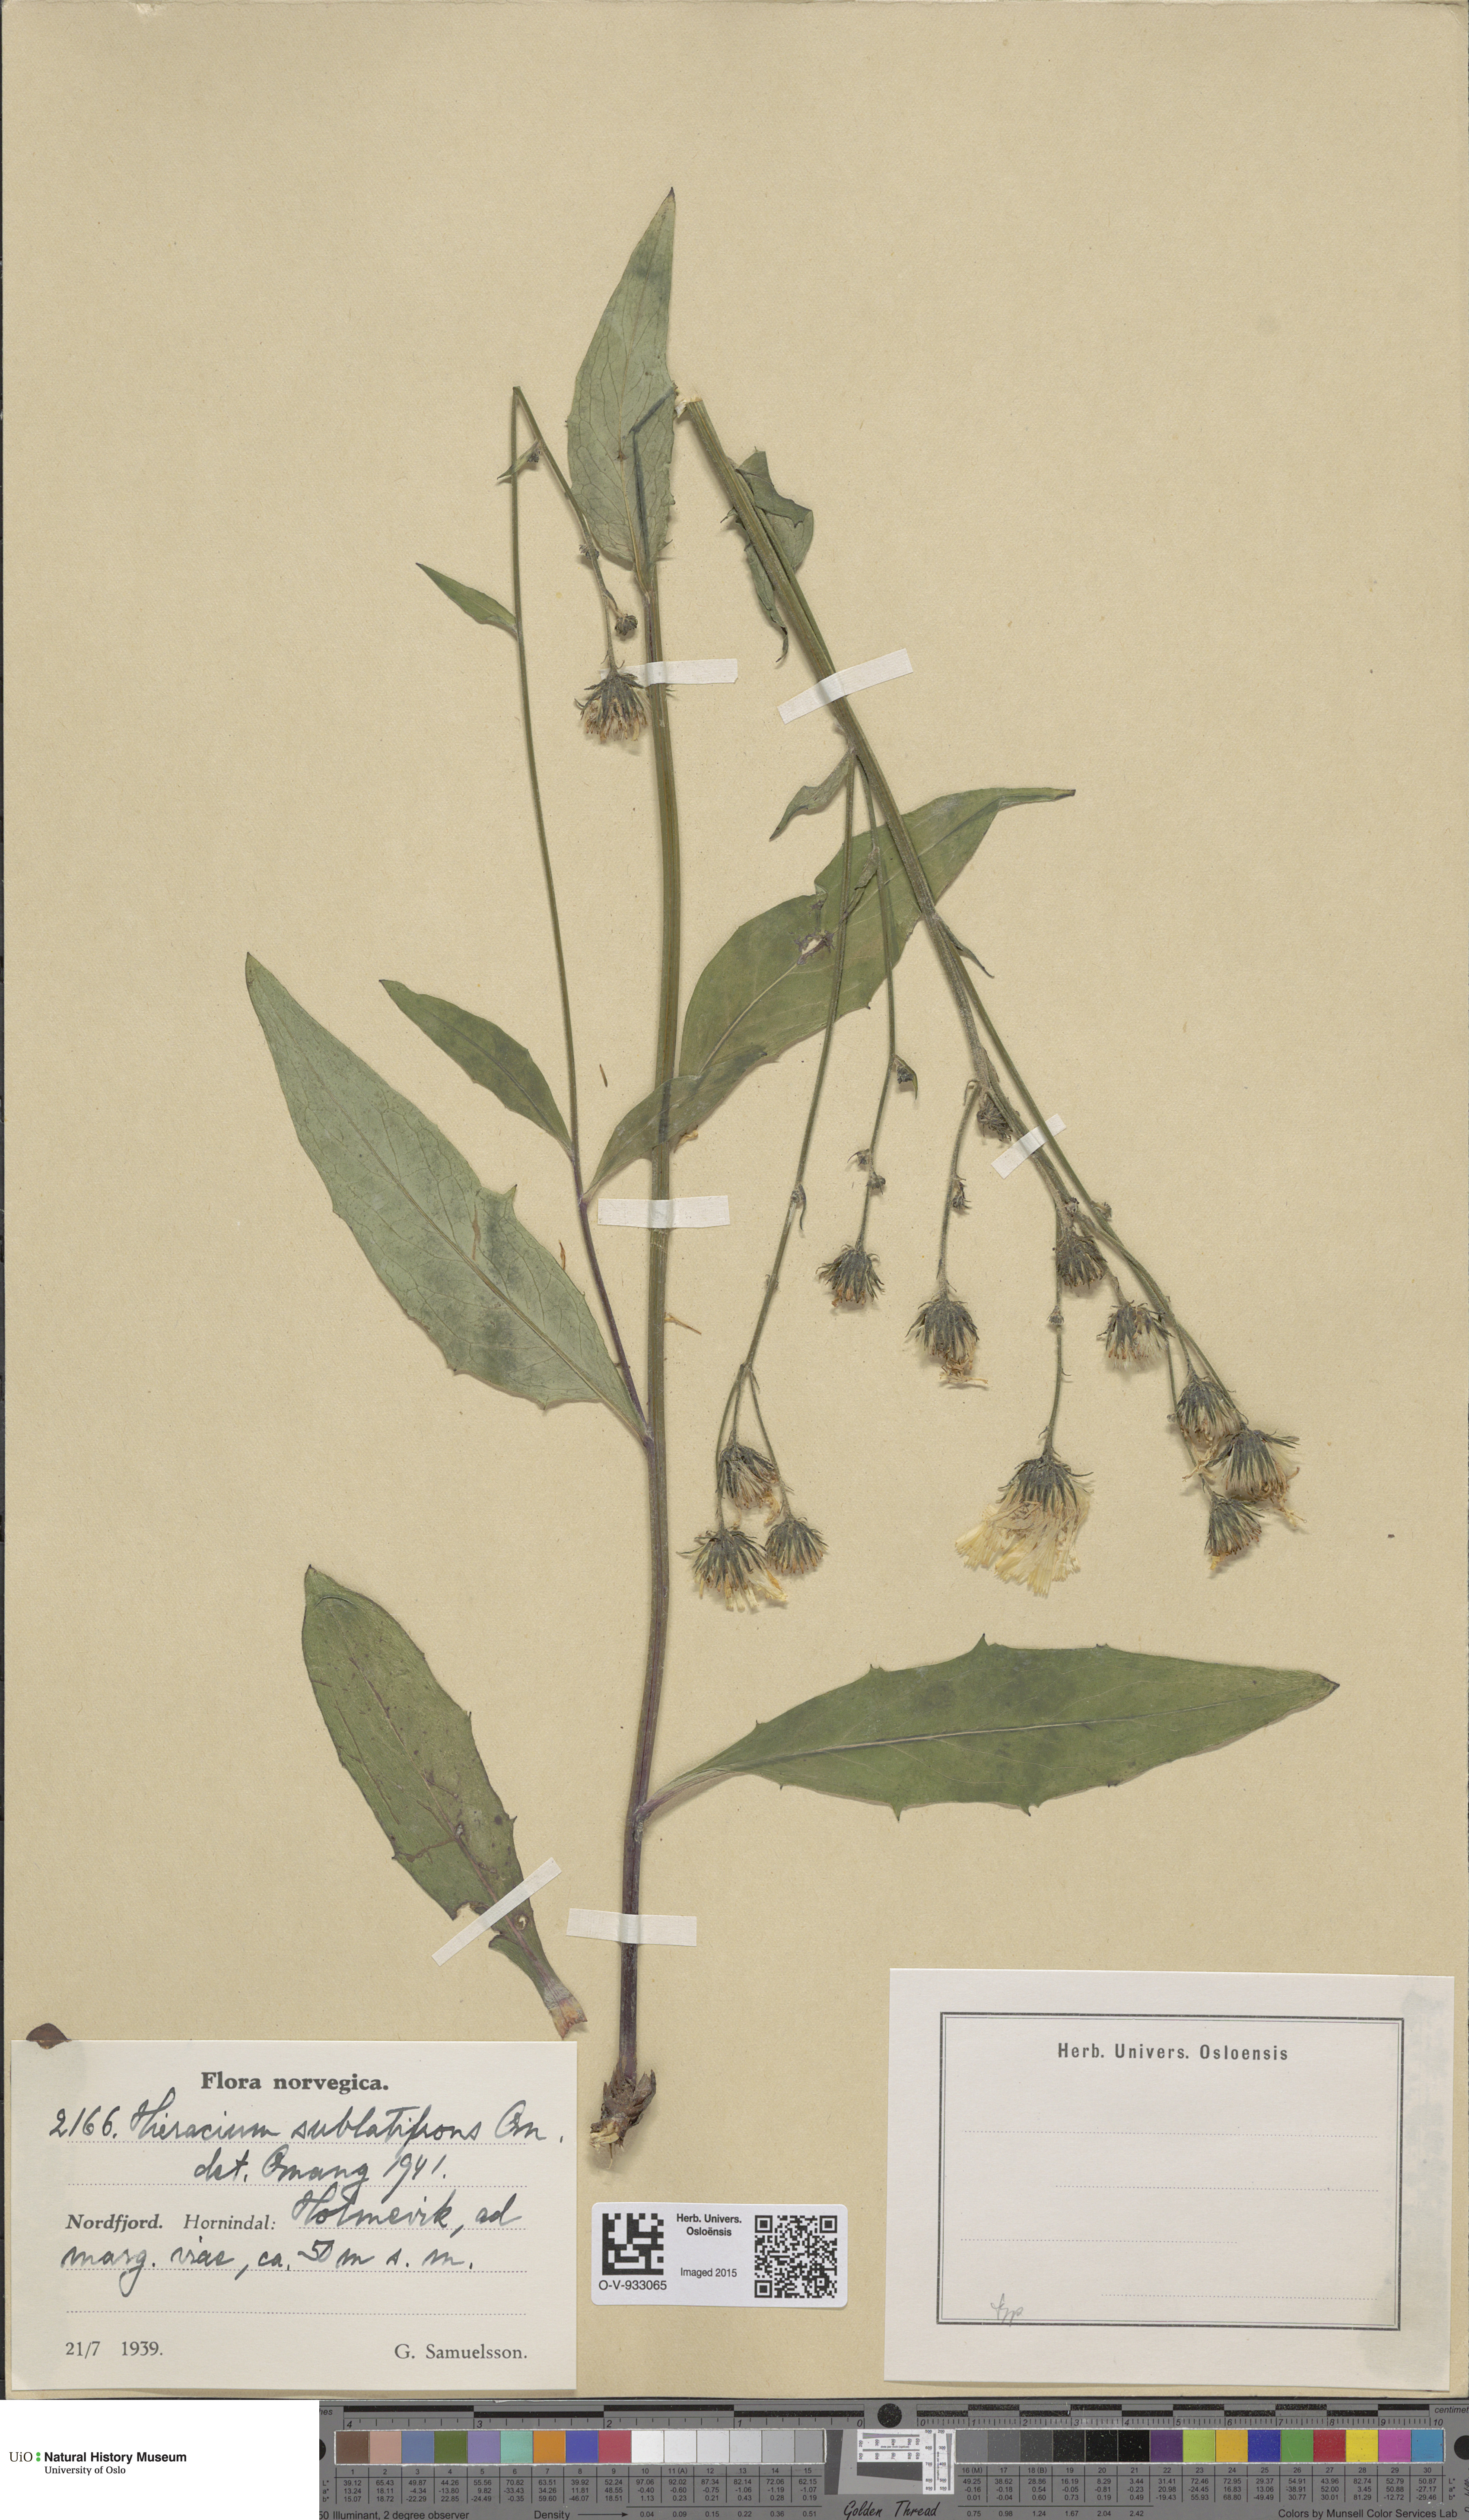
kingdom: Plantae
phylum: Tracheophyta
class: Magnoliopsida
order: Asterales
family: Asteraceae
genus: Hieracium
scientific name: Hieracium
